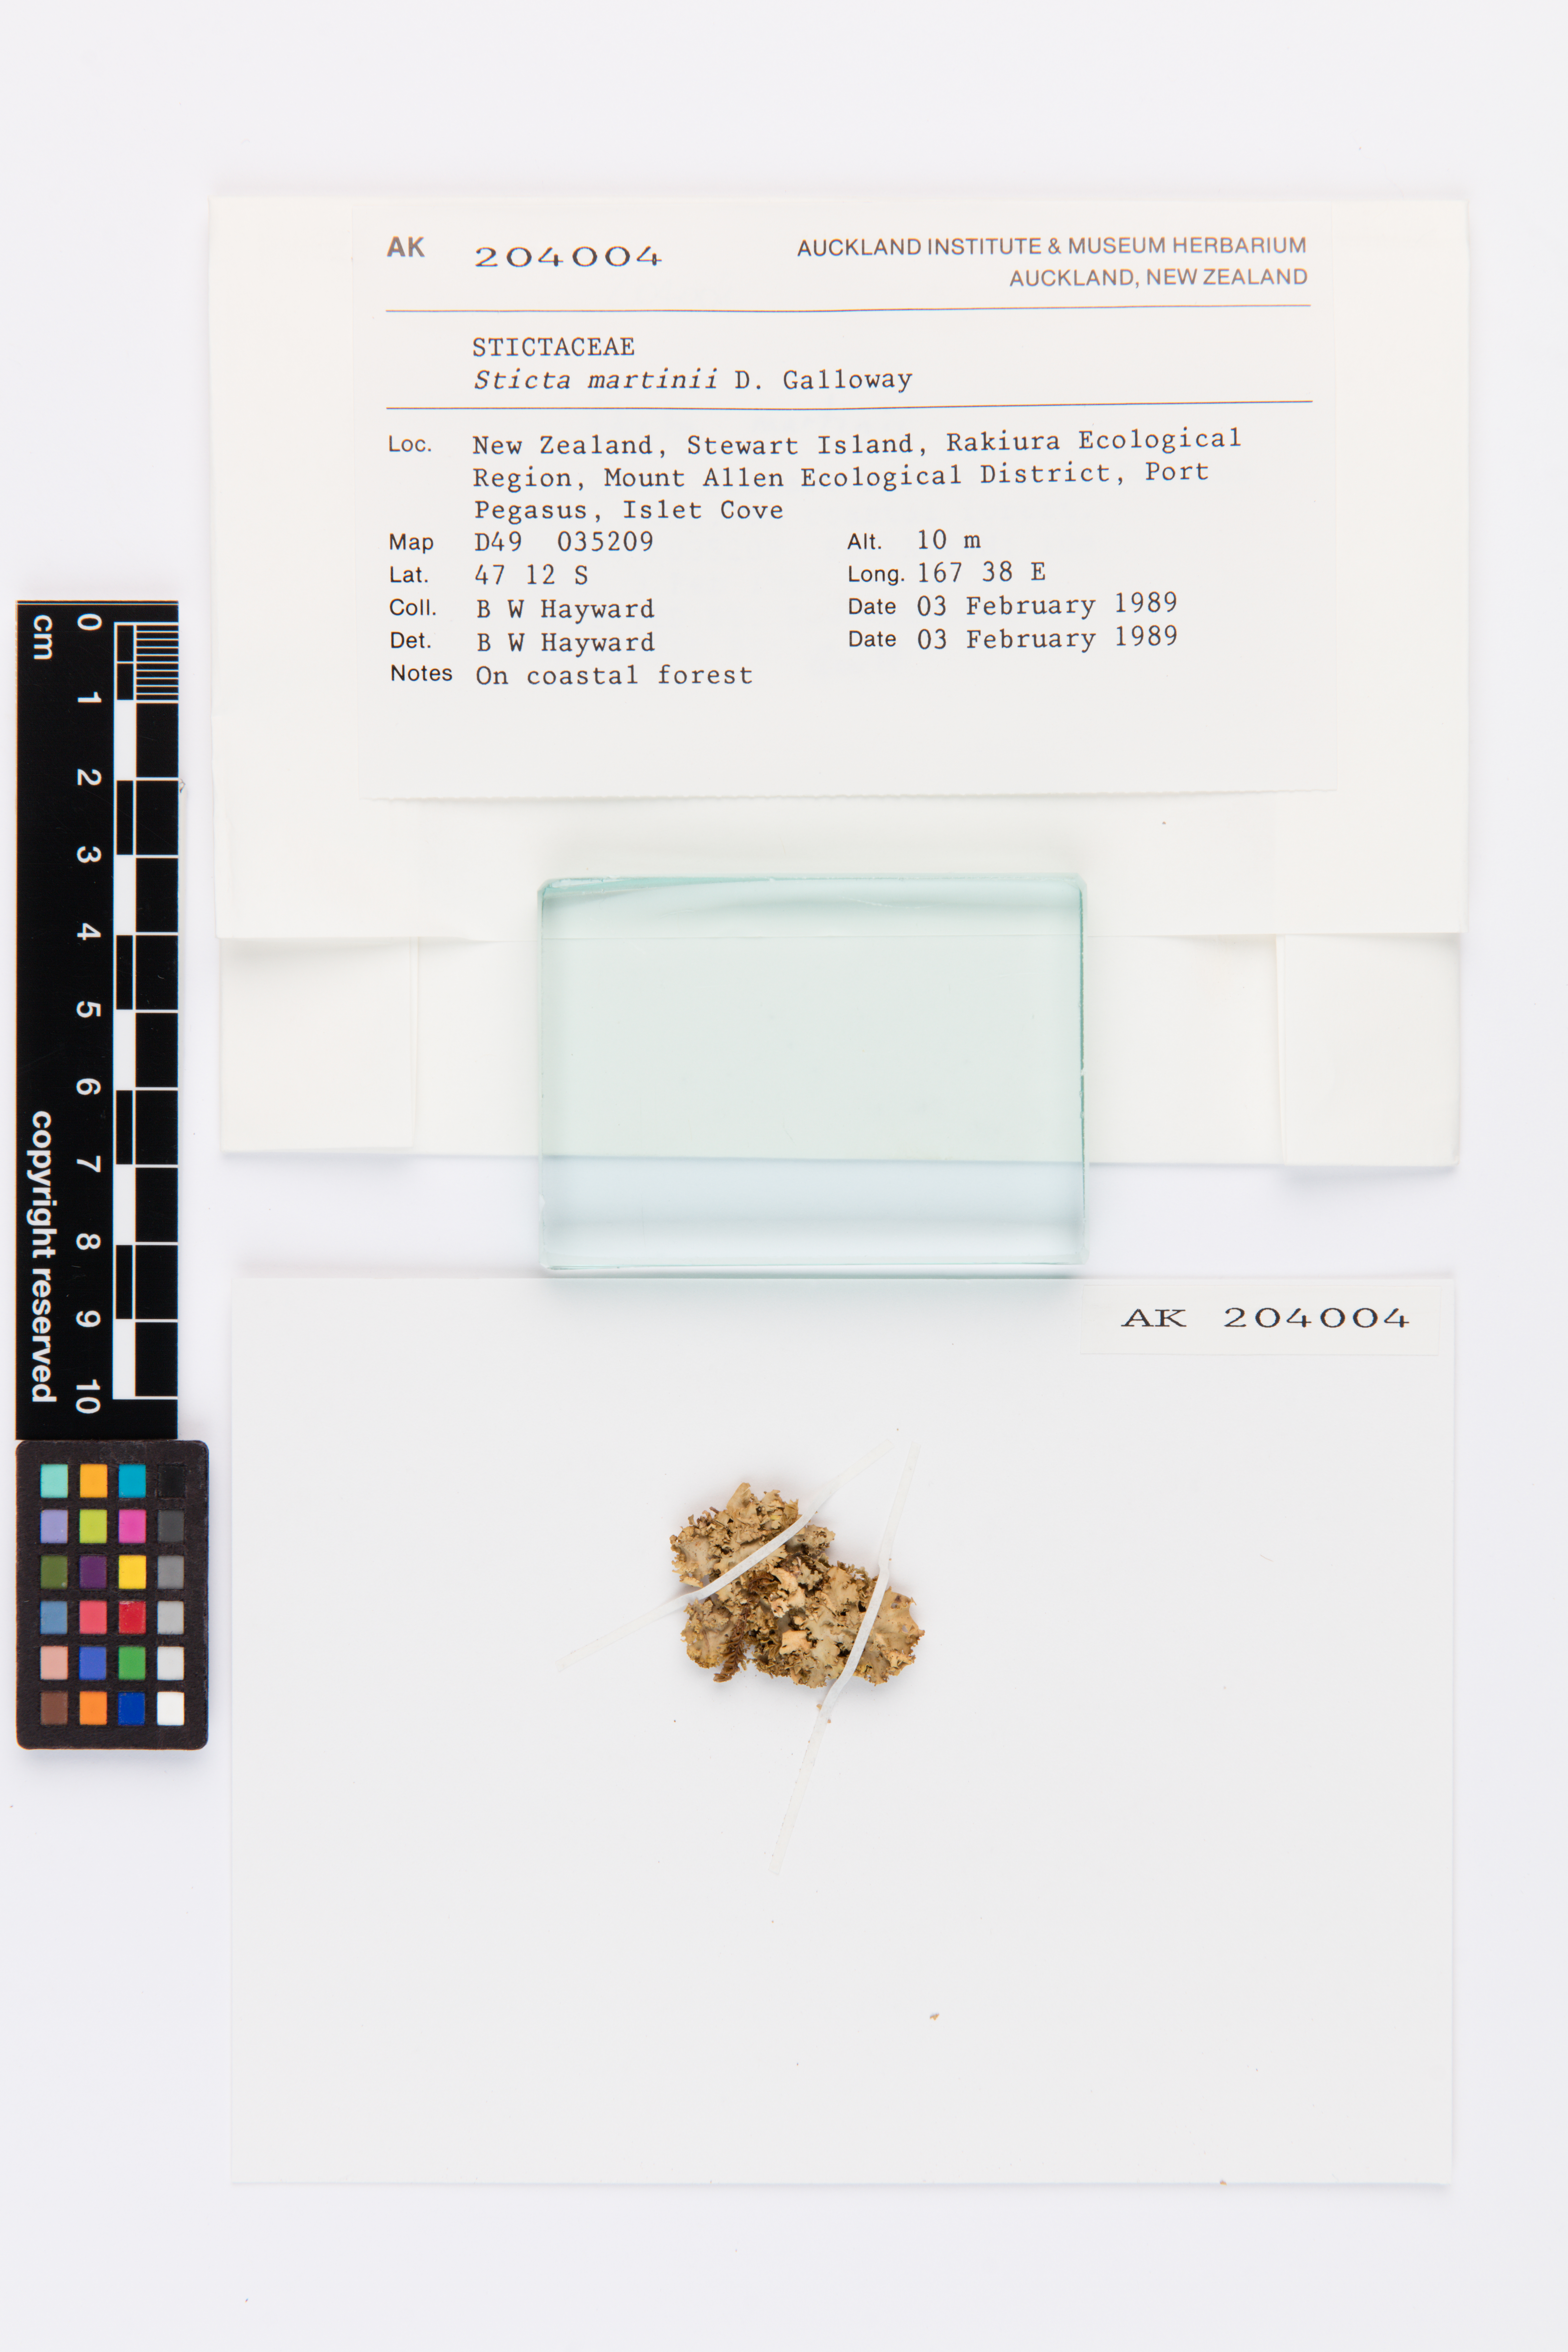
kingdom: Fungi
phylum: Ascomycota
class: Lecanoromycetes
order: Peltigerales
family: Lobariaceae
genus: Sticta
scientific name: Sticta martinii
